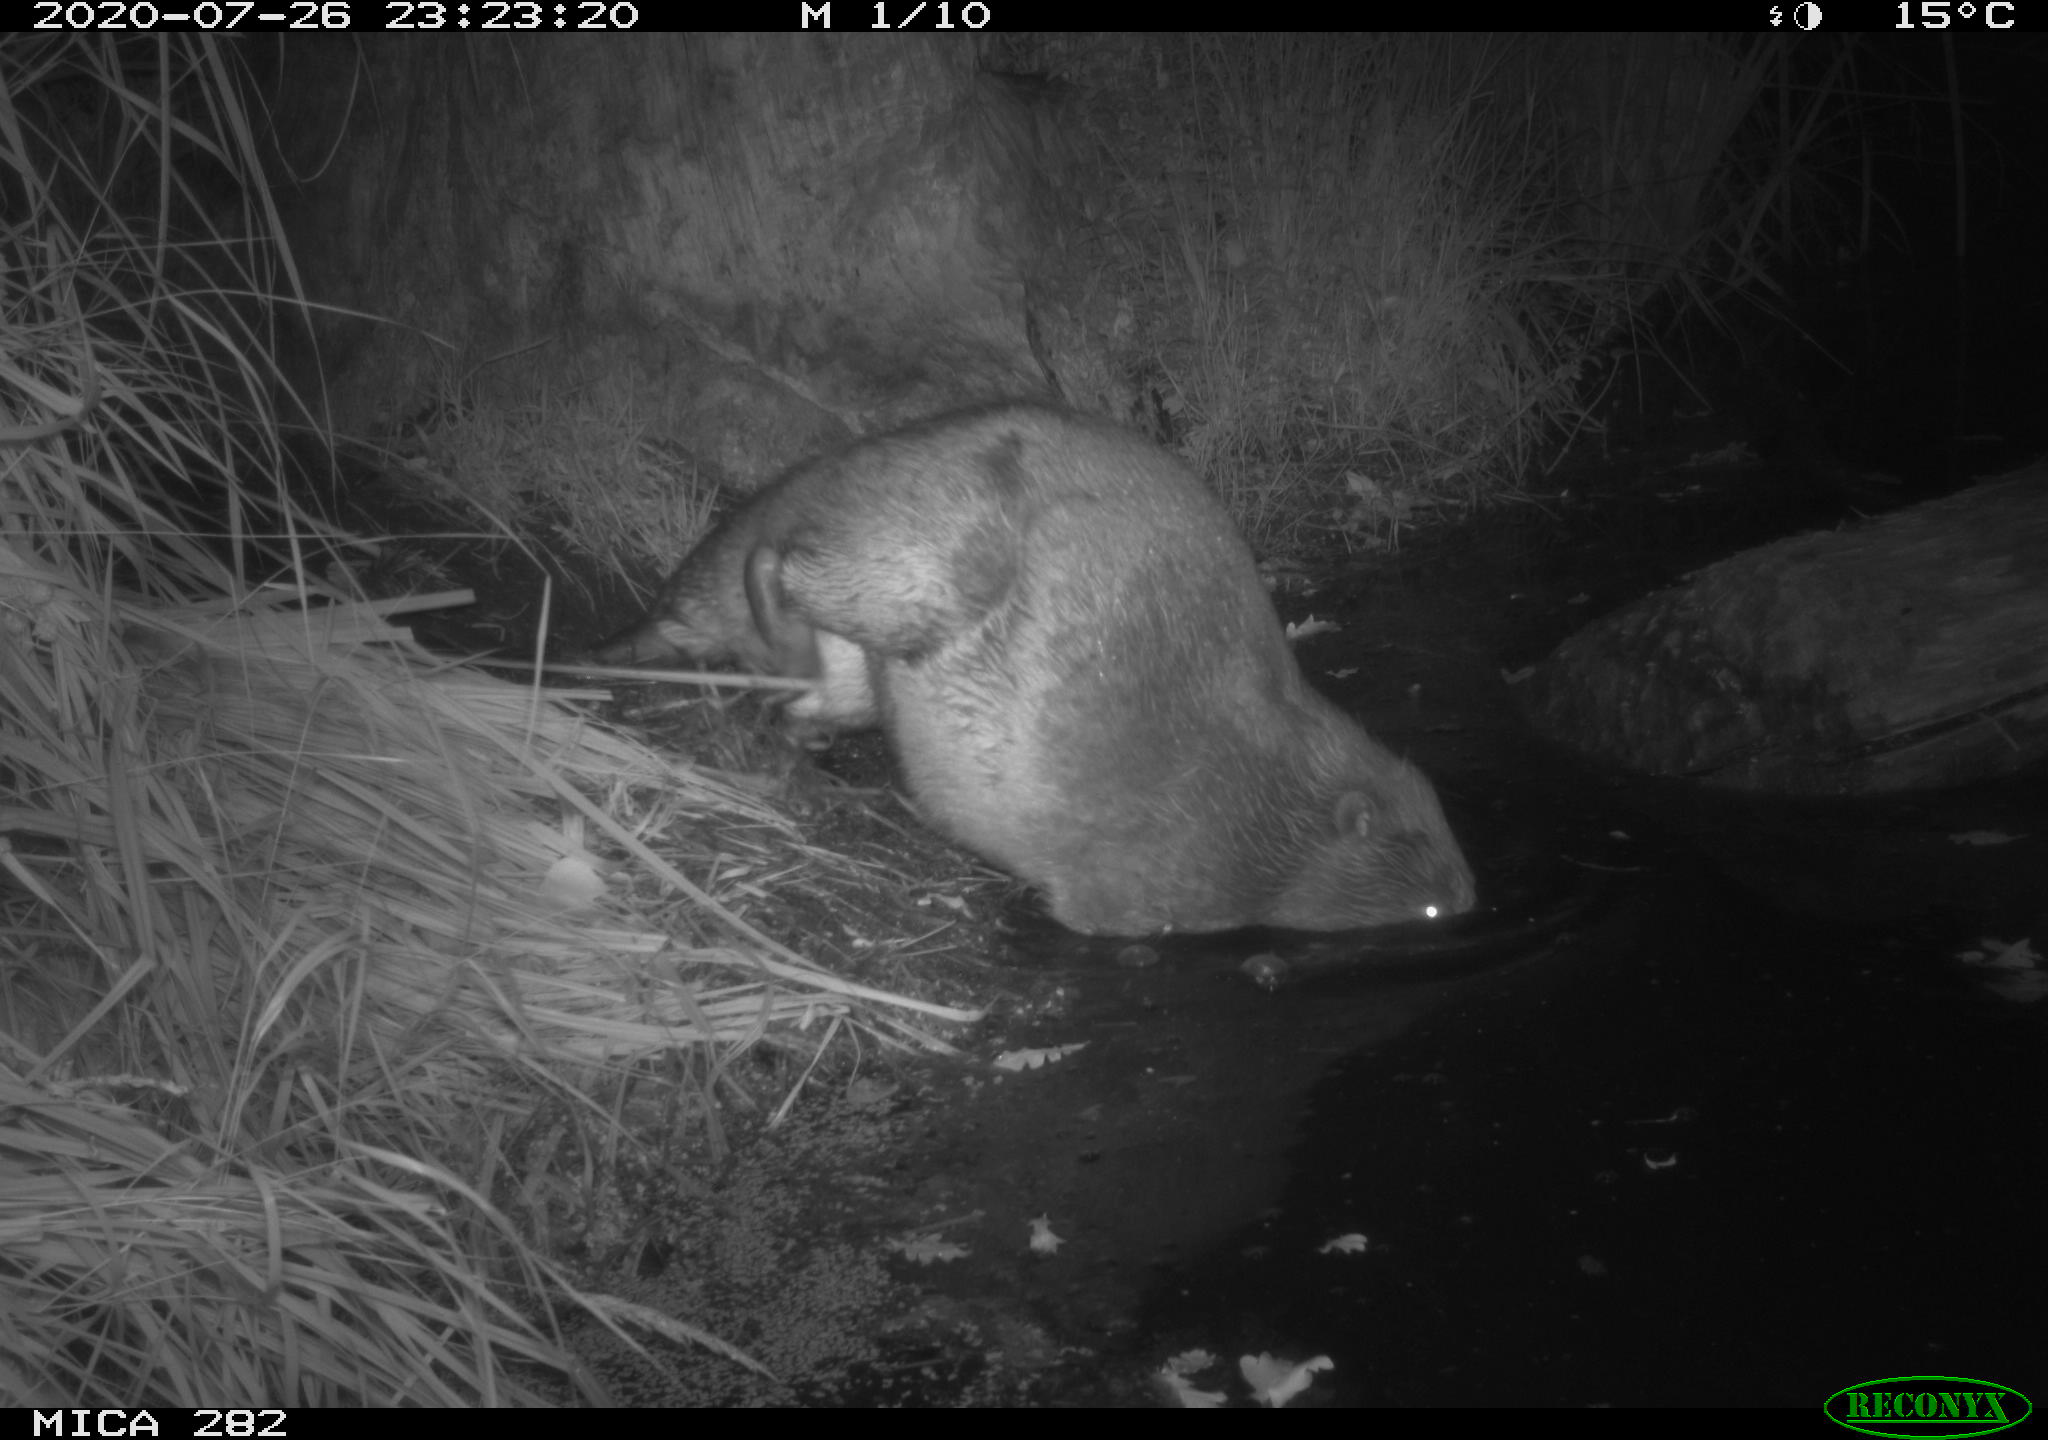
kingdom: Animalia
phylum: Chordata
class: Mammalia
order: Rodentia
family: Castoridae
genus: Castor
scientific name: Castor fiber
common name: Eurasian beaver
